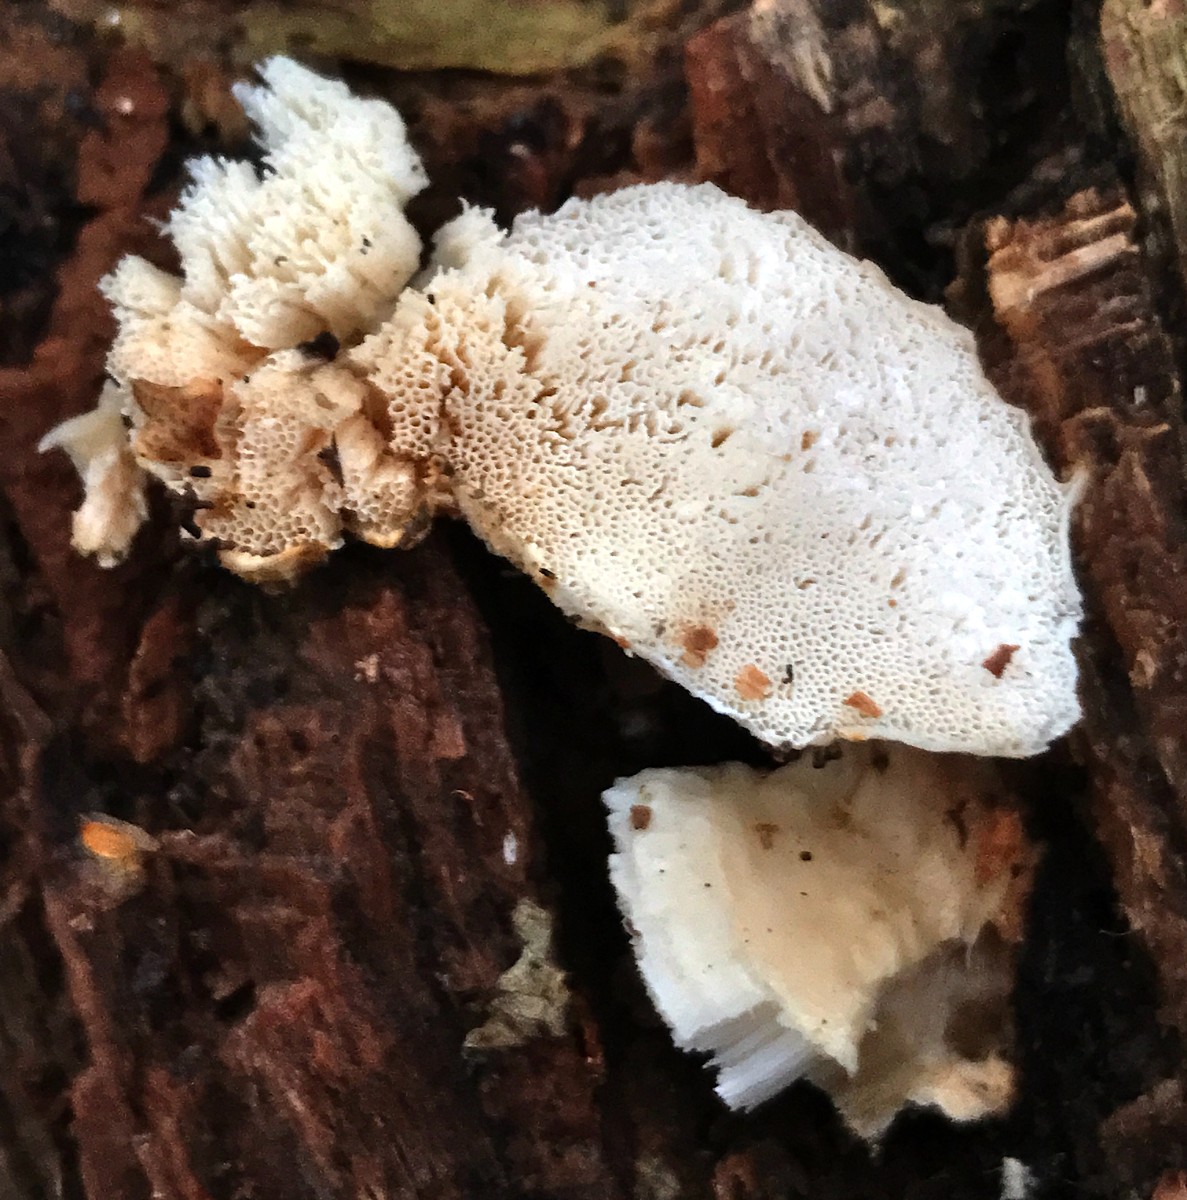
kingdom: Fungi
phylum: Basidiomycota
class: Agaricomycetes
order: Polyporales
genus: Amaropostia
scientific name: Amaropostia stiptica
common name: bitter kødporesvamp
